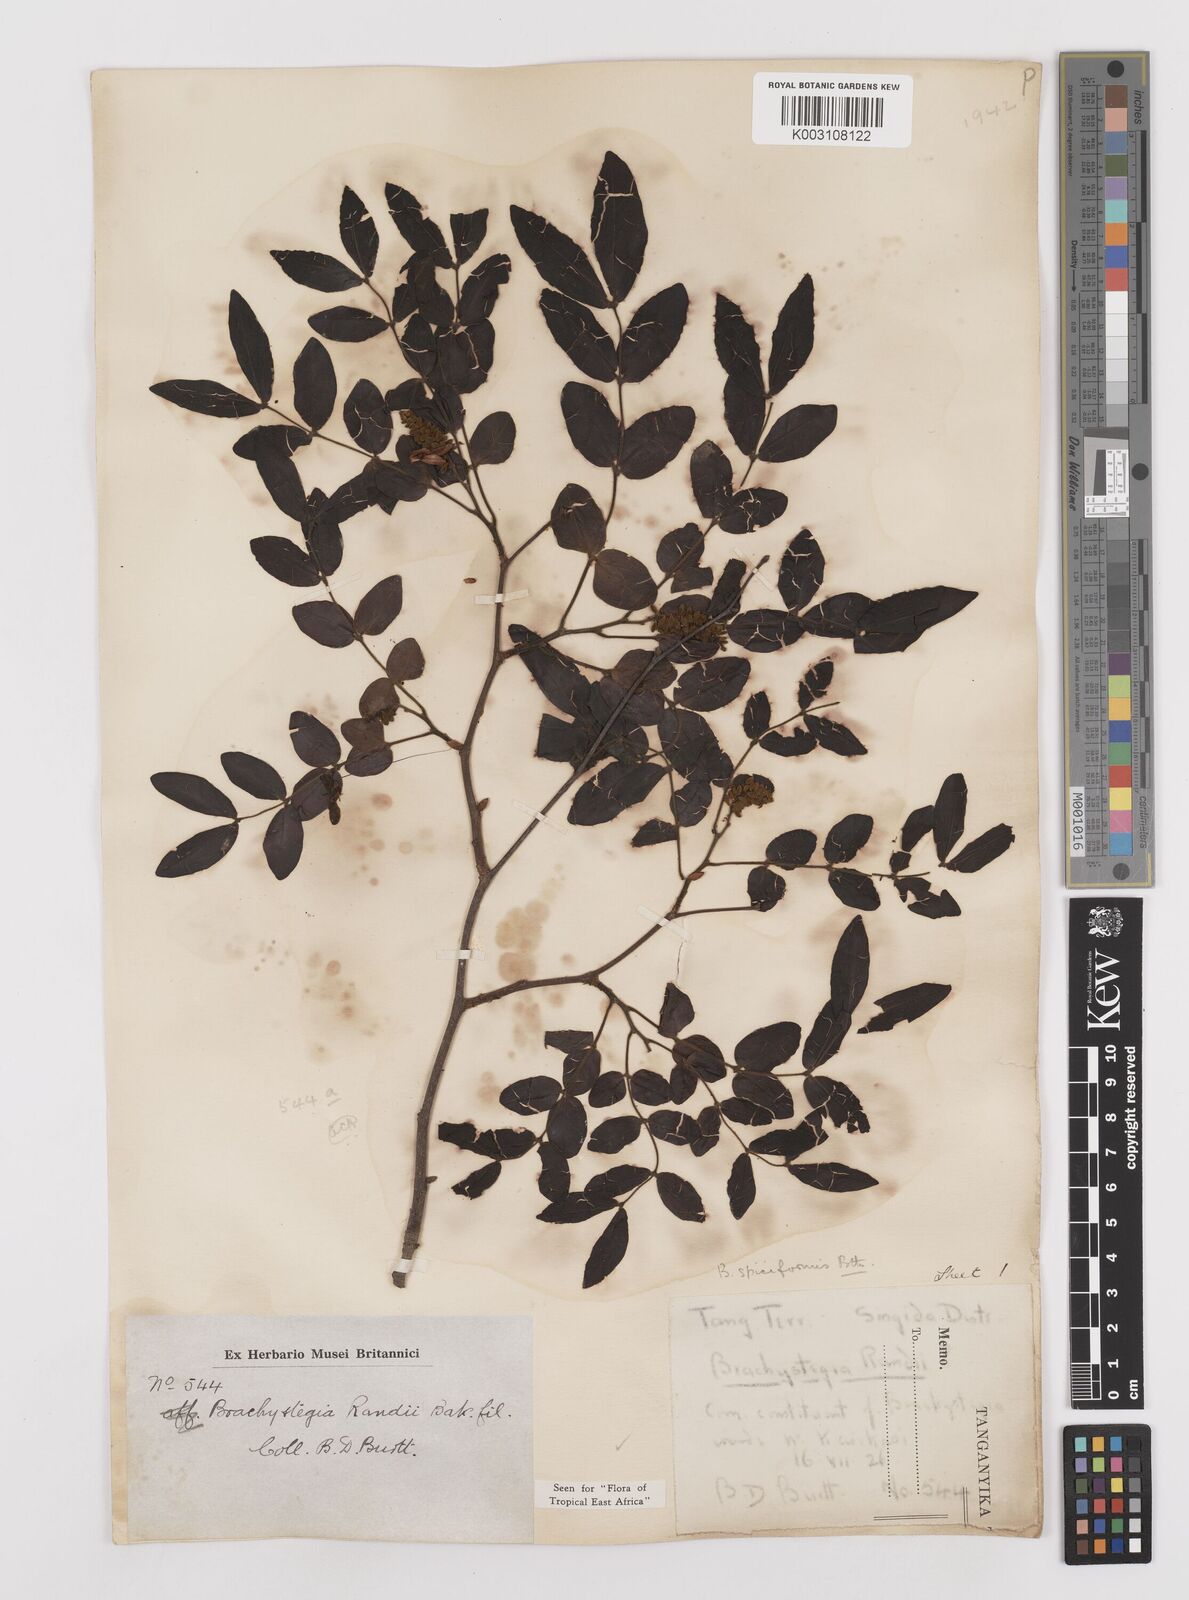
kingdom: Plantae
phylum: Tracheophyta
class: Magnoliopsida
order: Fabales
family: Fabaceae
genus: Brachystegia
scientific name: Brachystegia spiciformis
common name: Zebrawood
